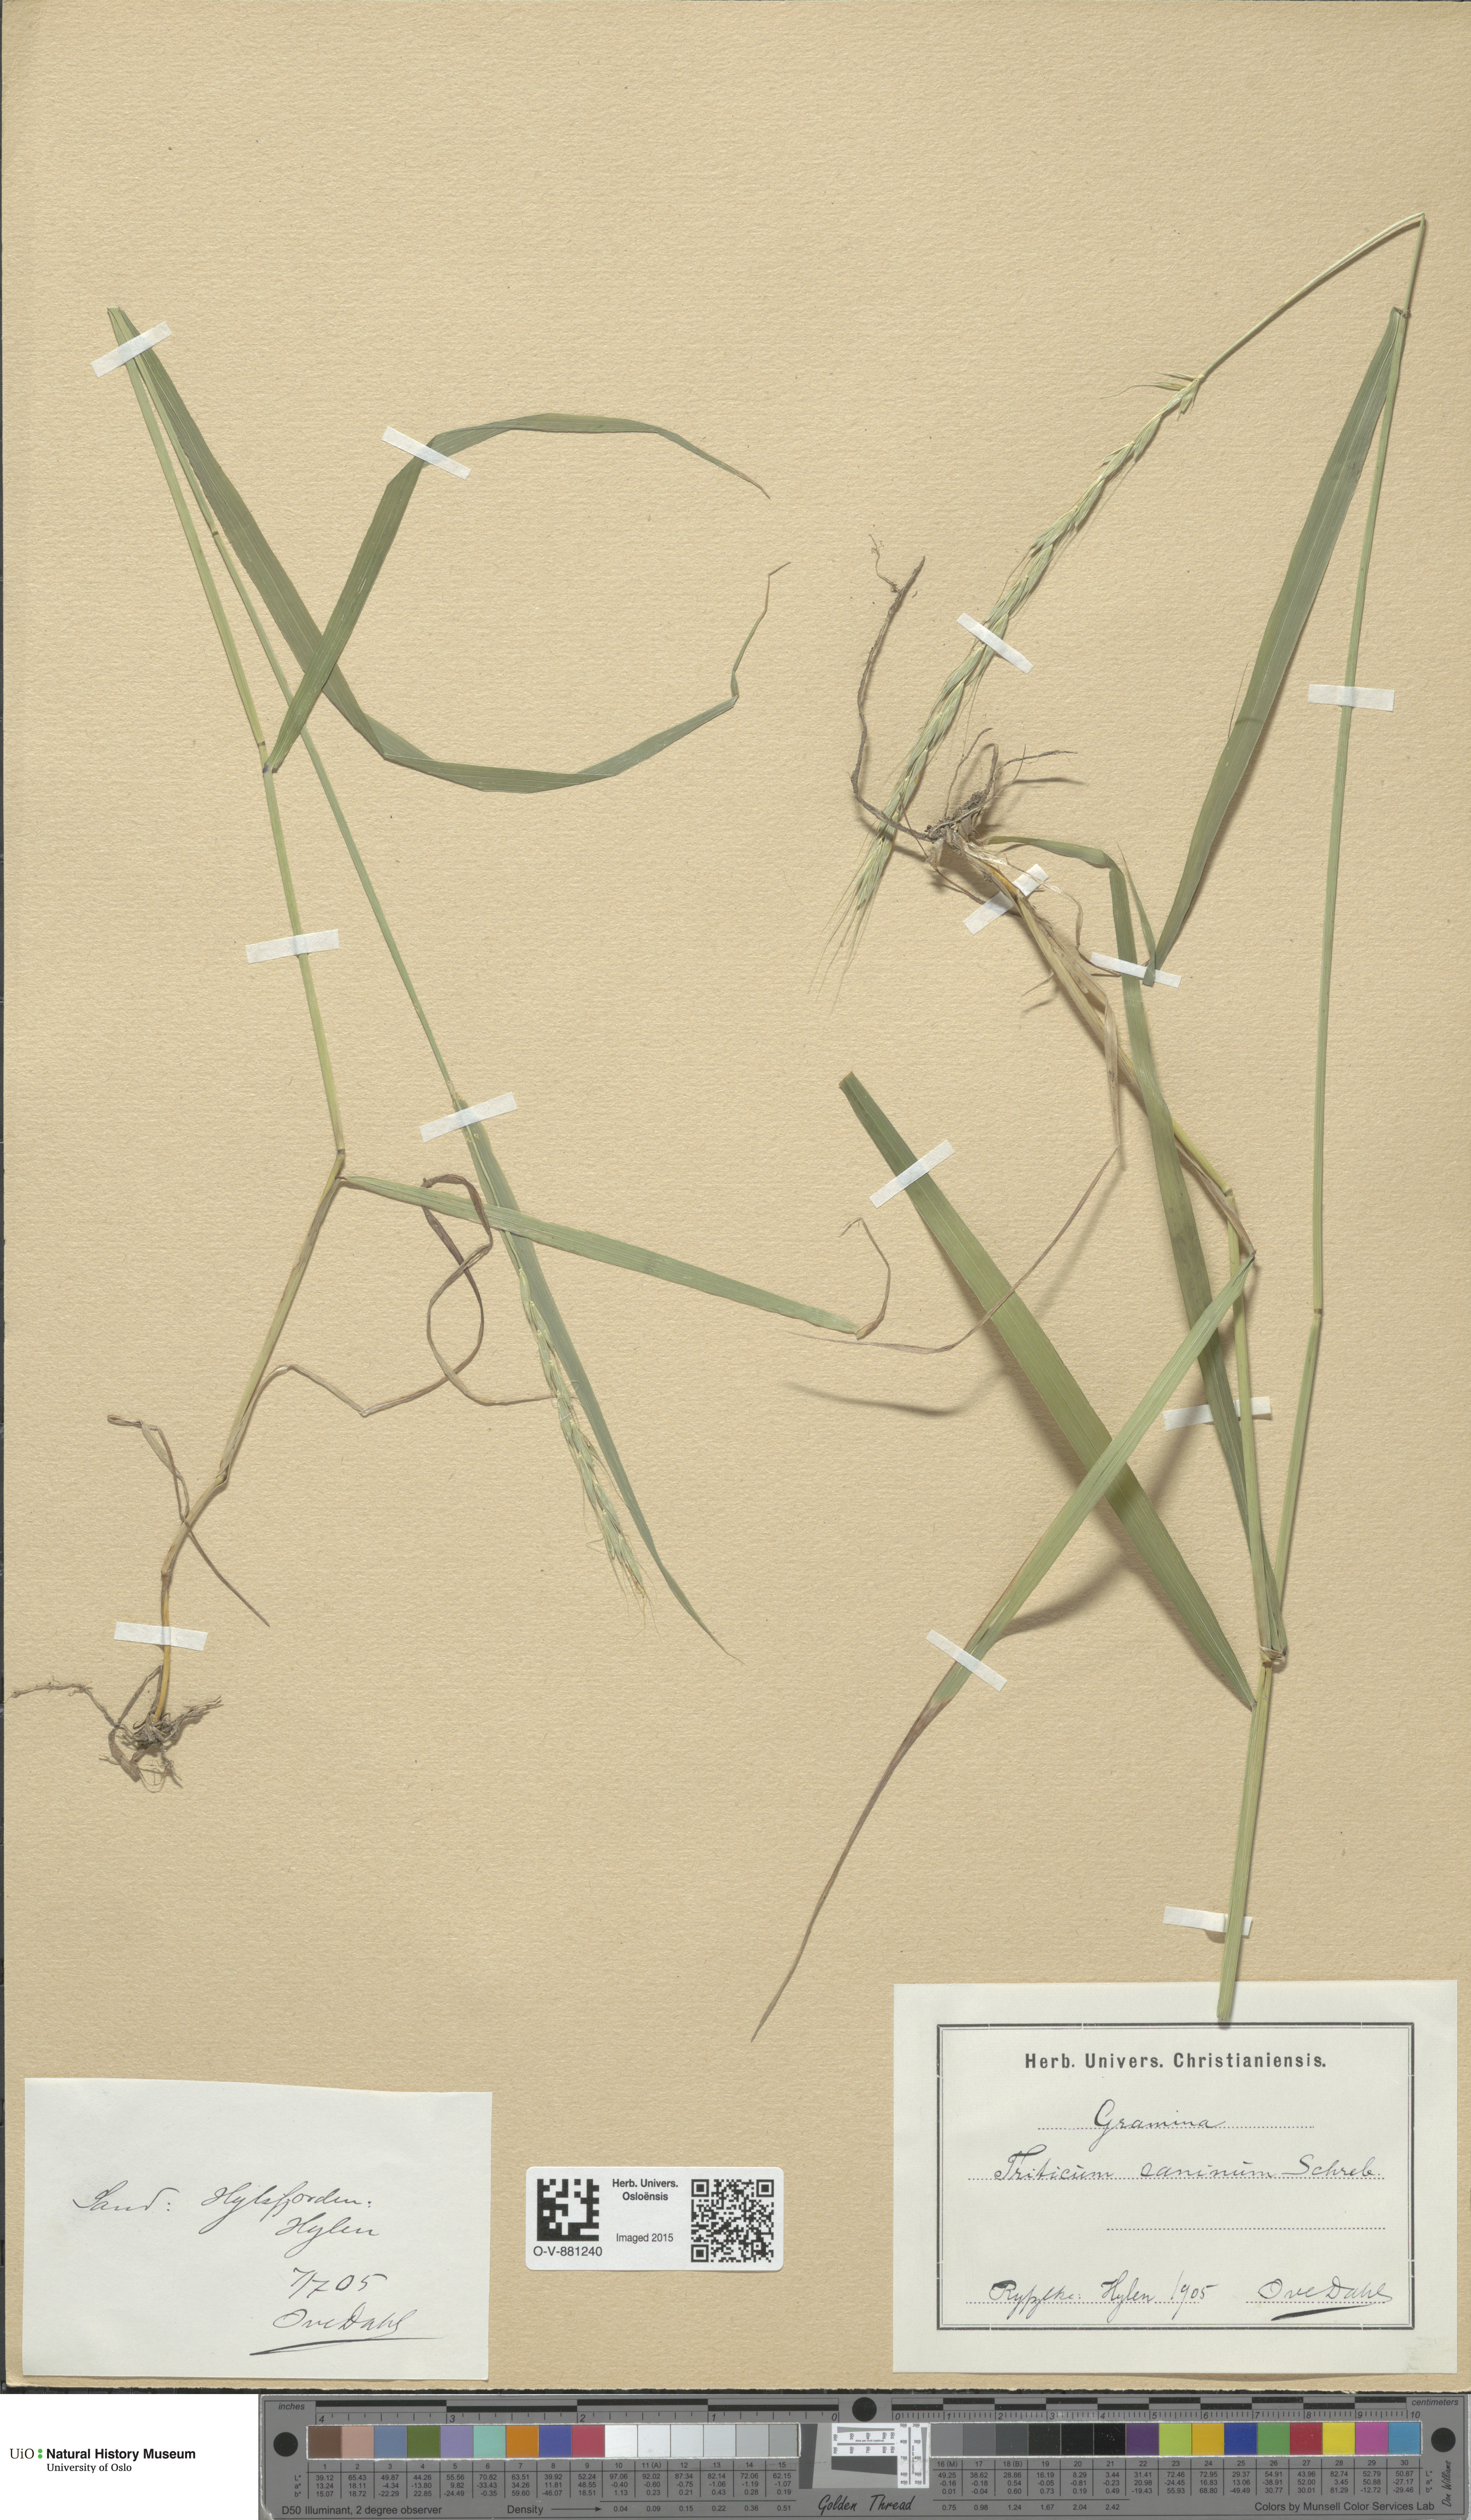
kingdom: Plantae
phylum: Tracheophyta
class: Liliopsida
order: Poales
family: Poaceae
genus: Elymus
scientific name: Elymus caninus
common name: Bearded couch
